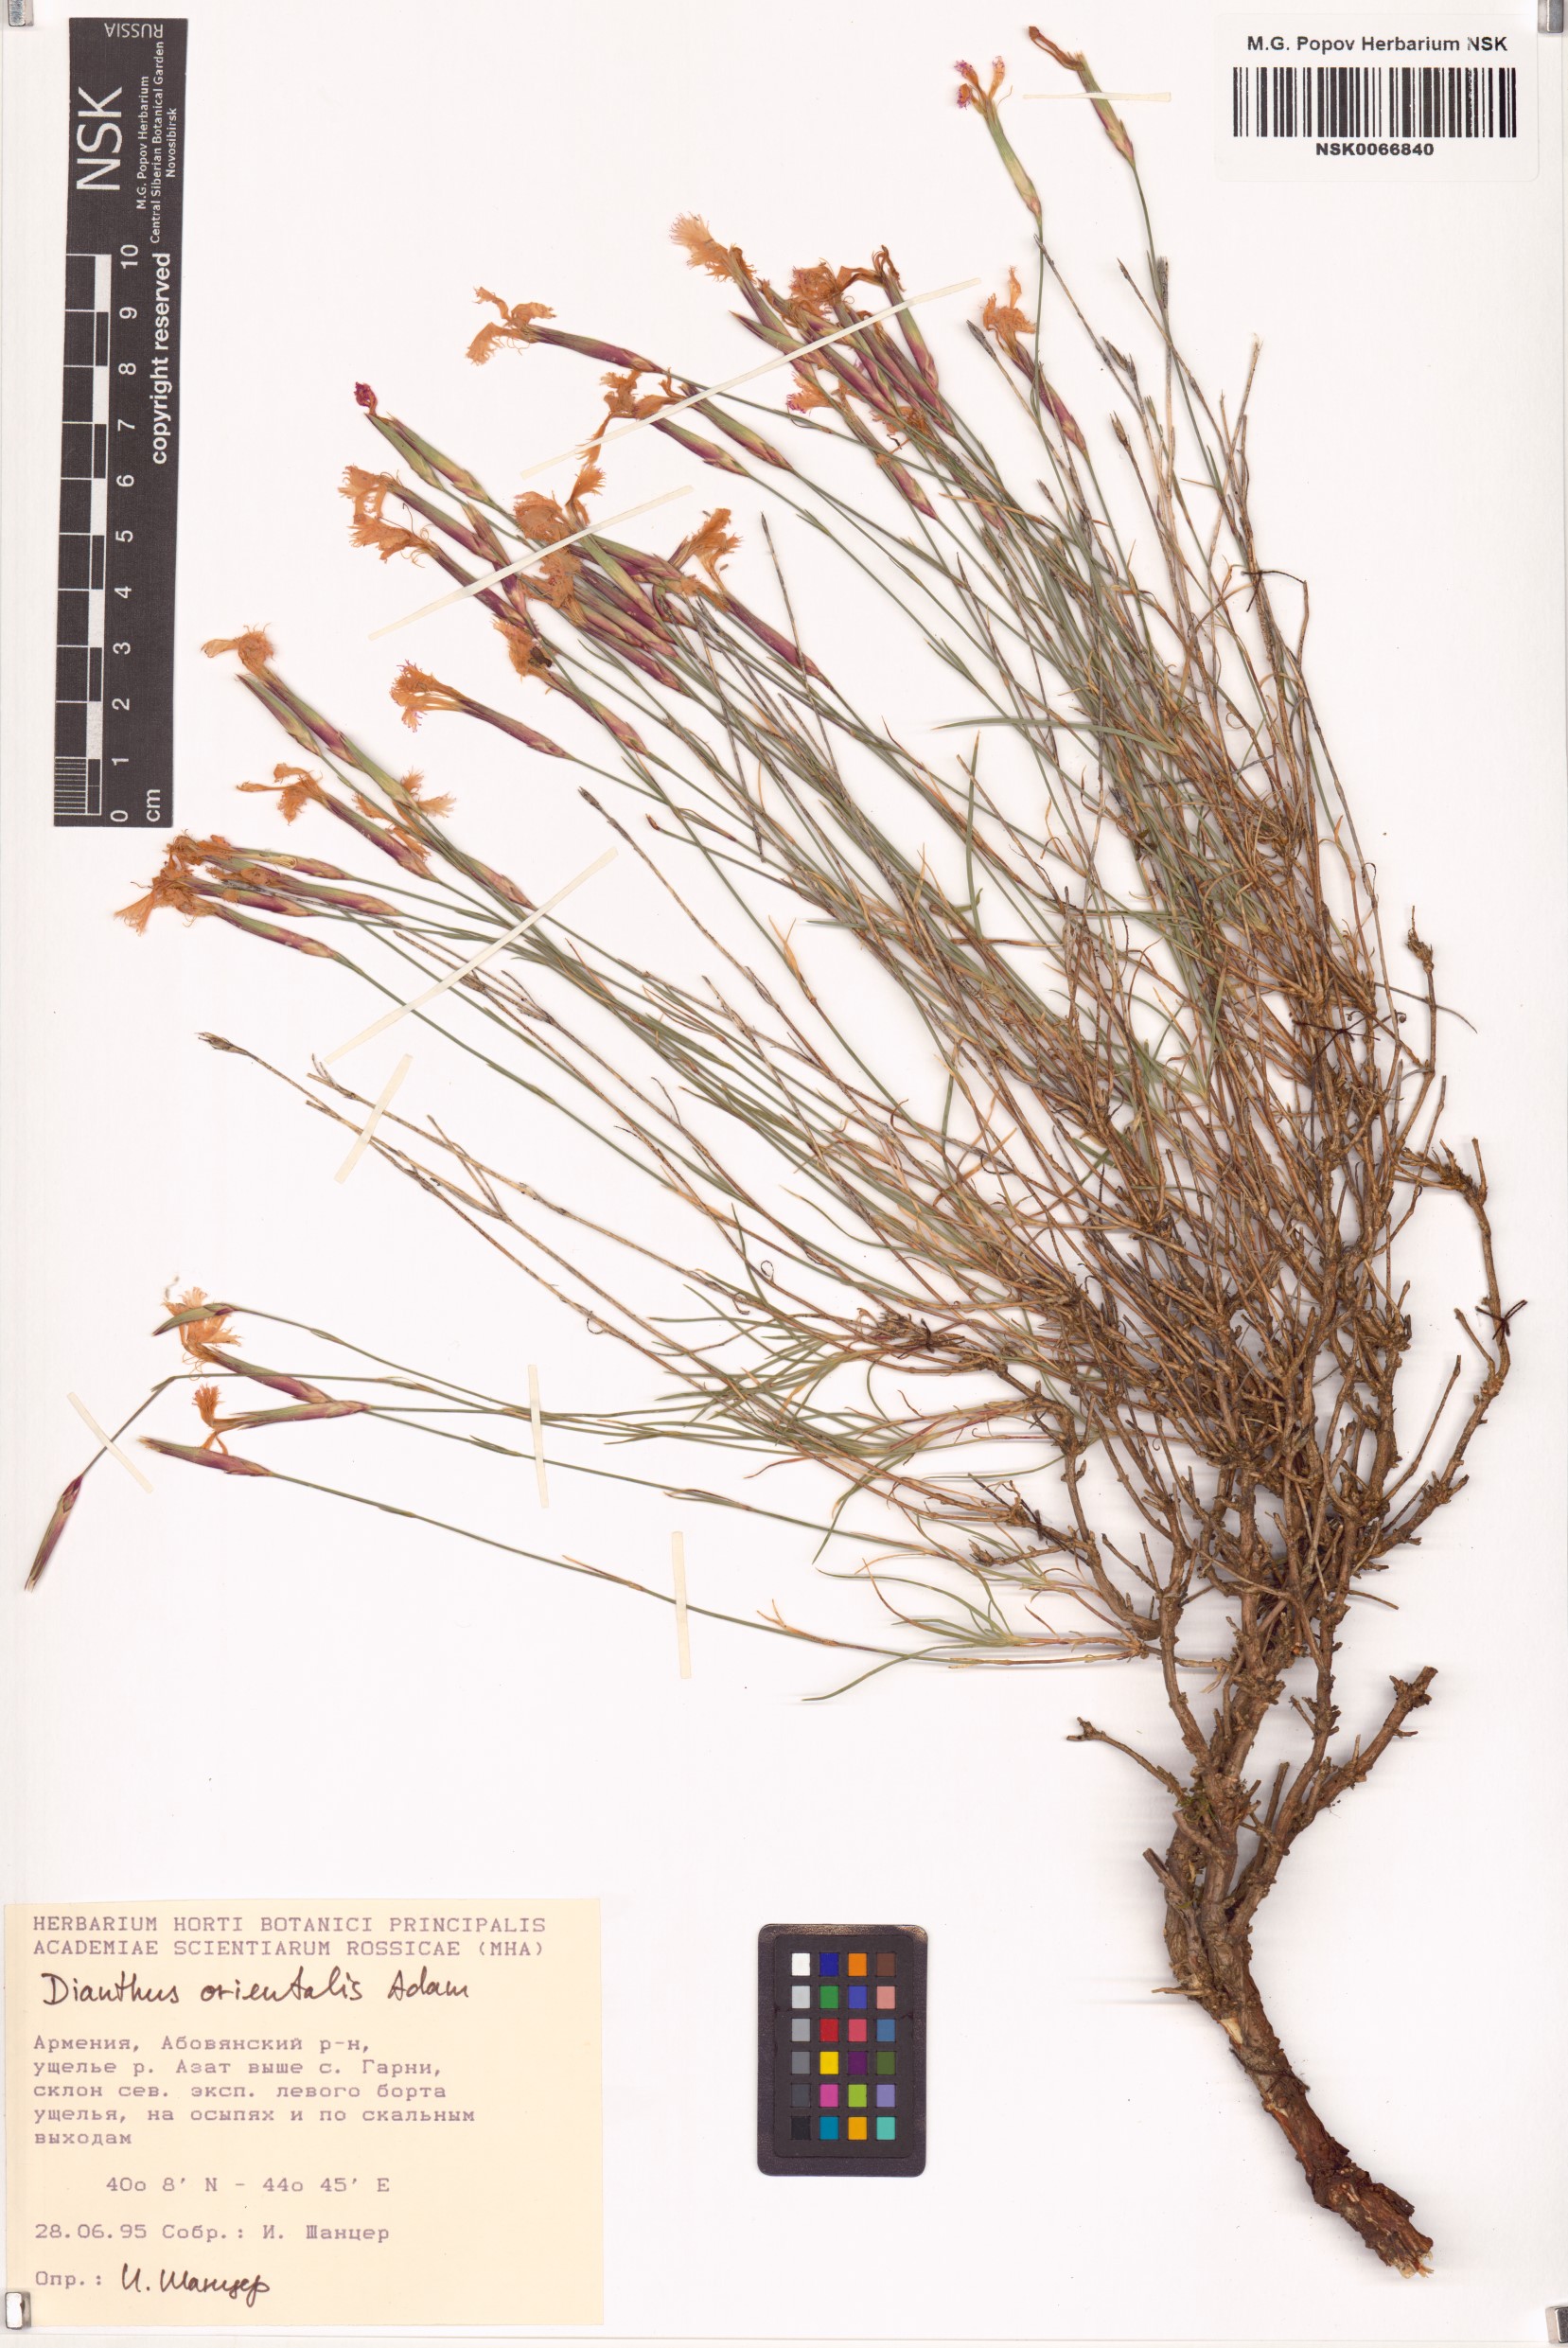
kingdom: Plantae
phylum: Tracheophyta
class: Magnoliopsida
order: Caryophyllales
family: Caryophyllaceae
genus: Dianthus
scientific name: Dianthus orientalis
